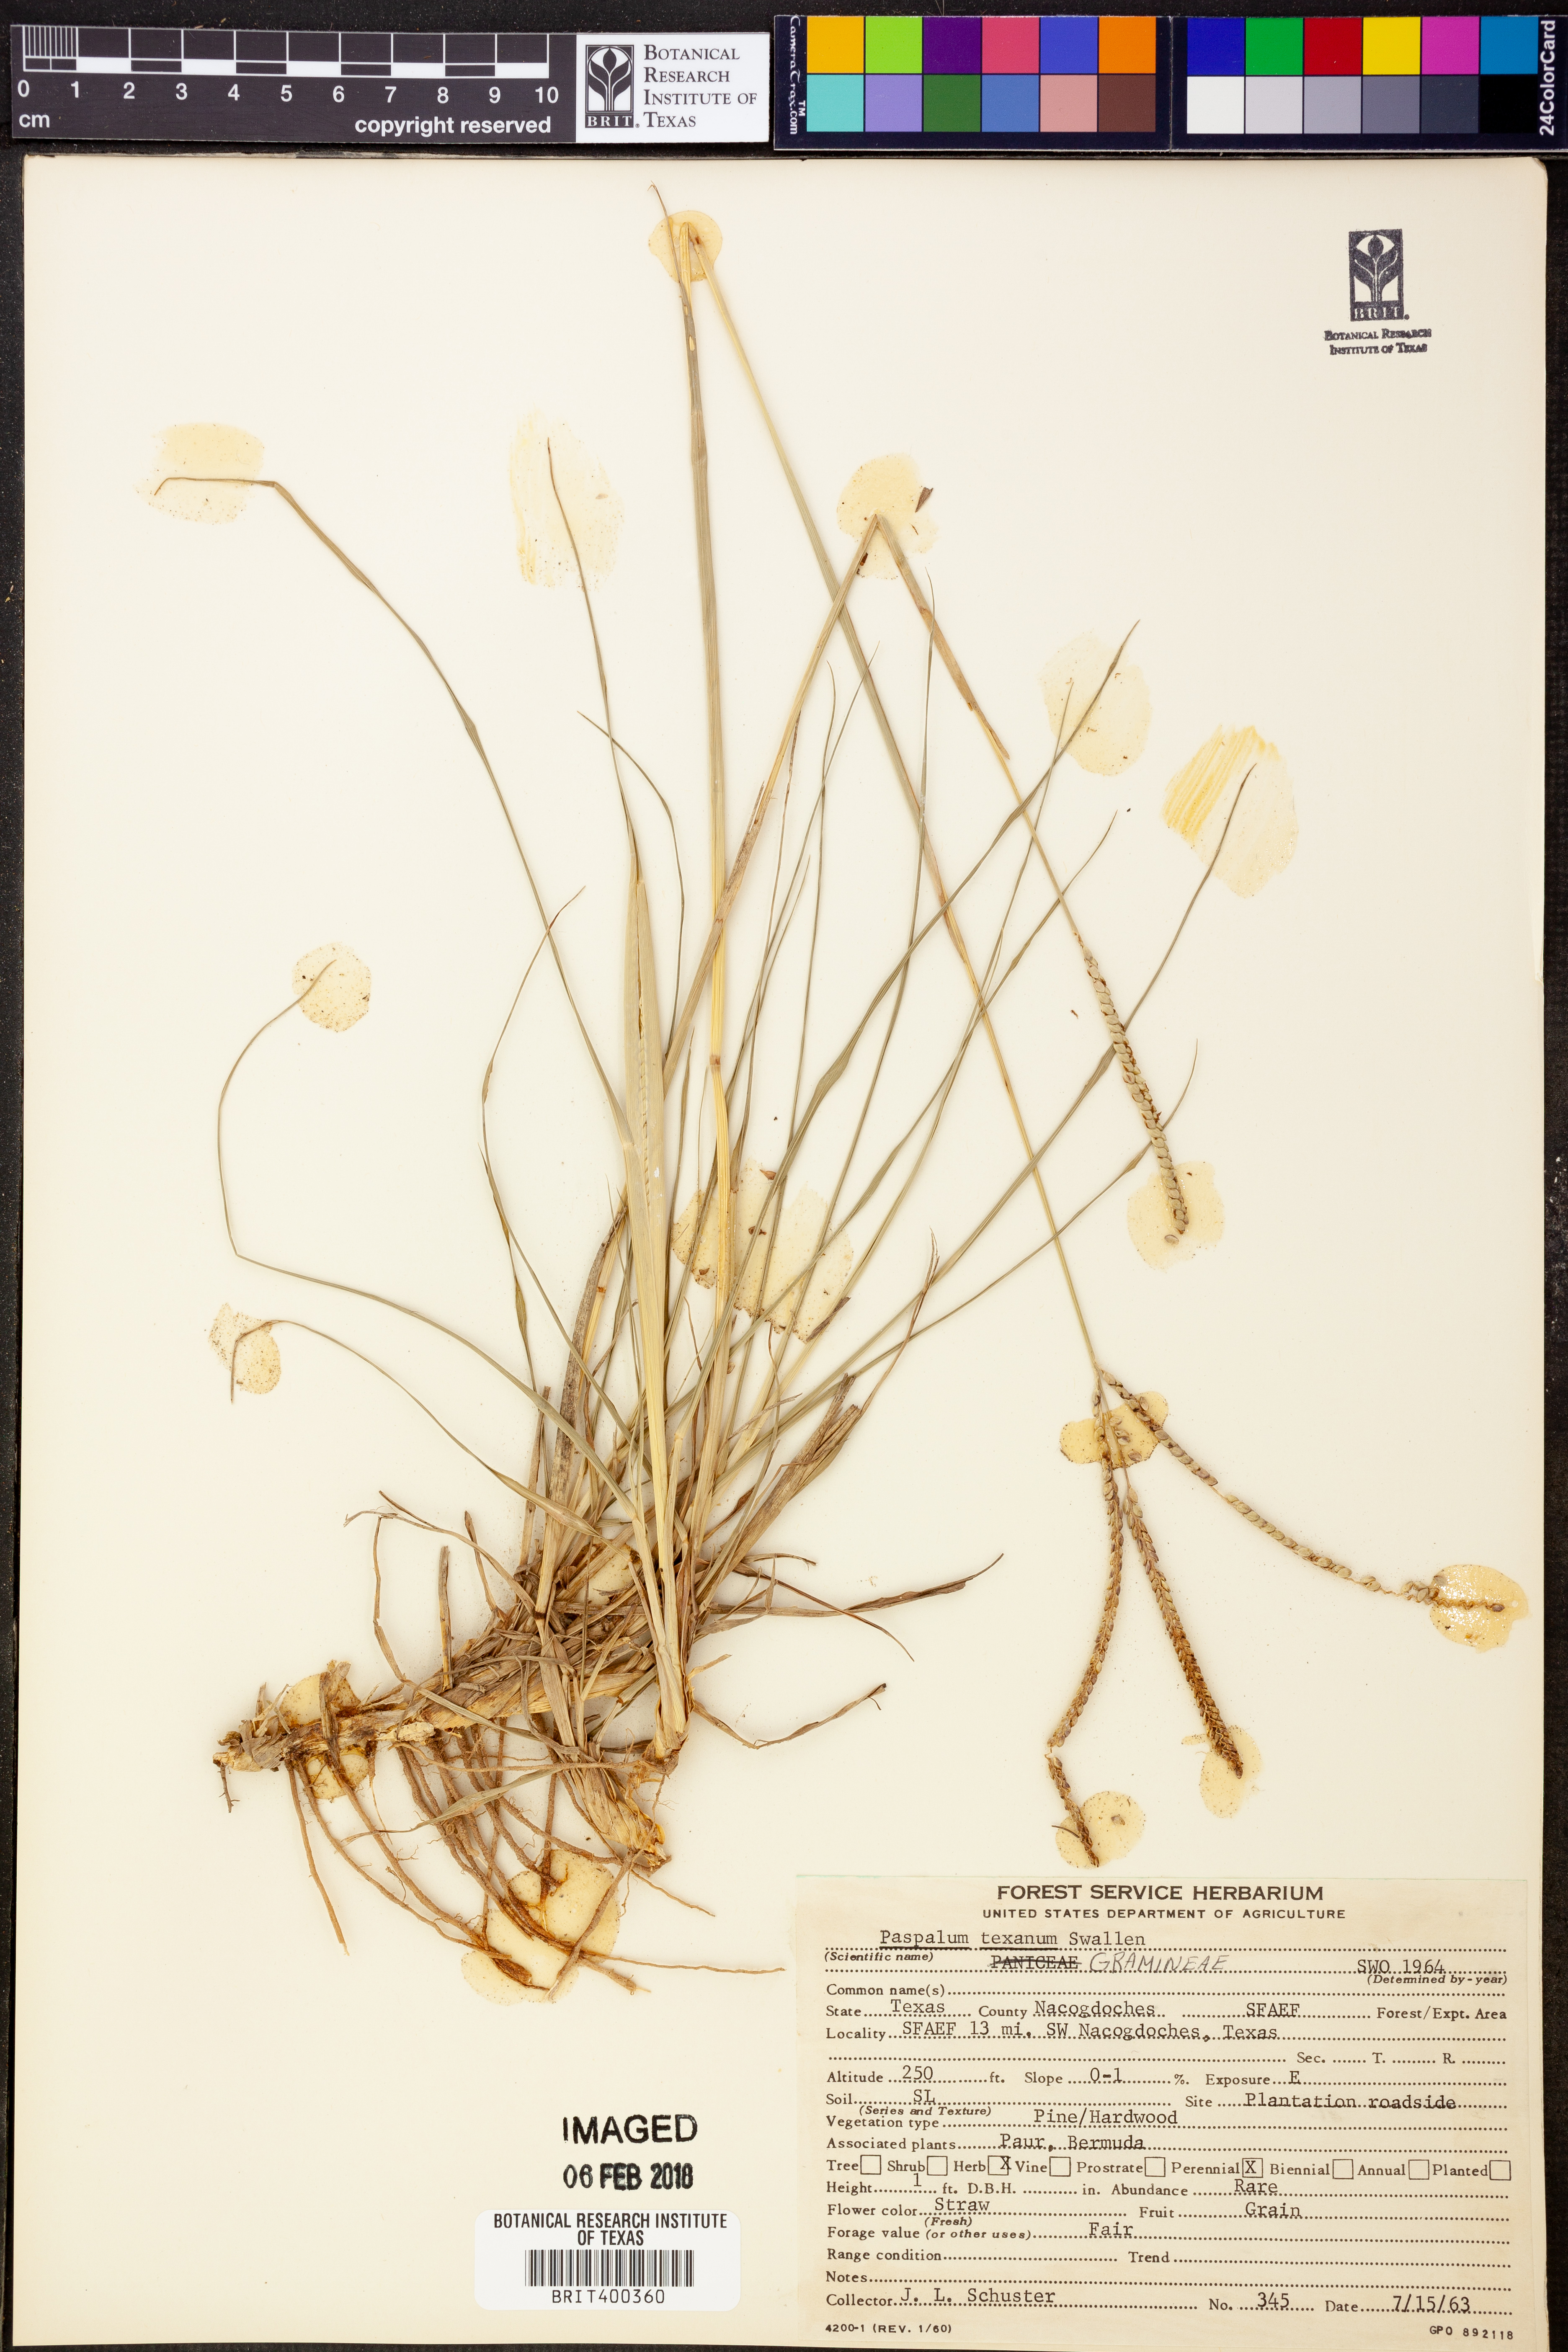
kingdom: Plantae
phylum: Tracheophyta
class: Liliopsida
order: Poales
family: Poaceae
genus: Paspalum
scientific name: Paspalum plicatulum
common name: Top paspalum
